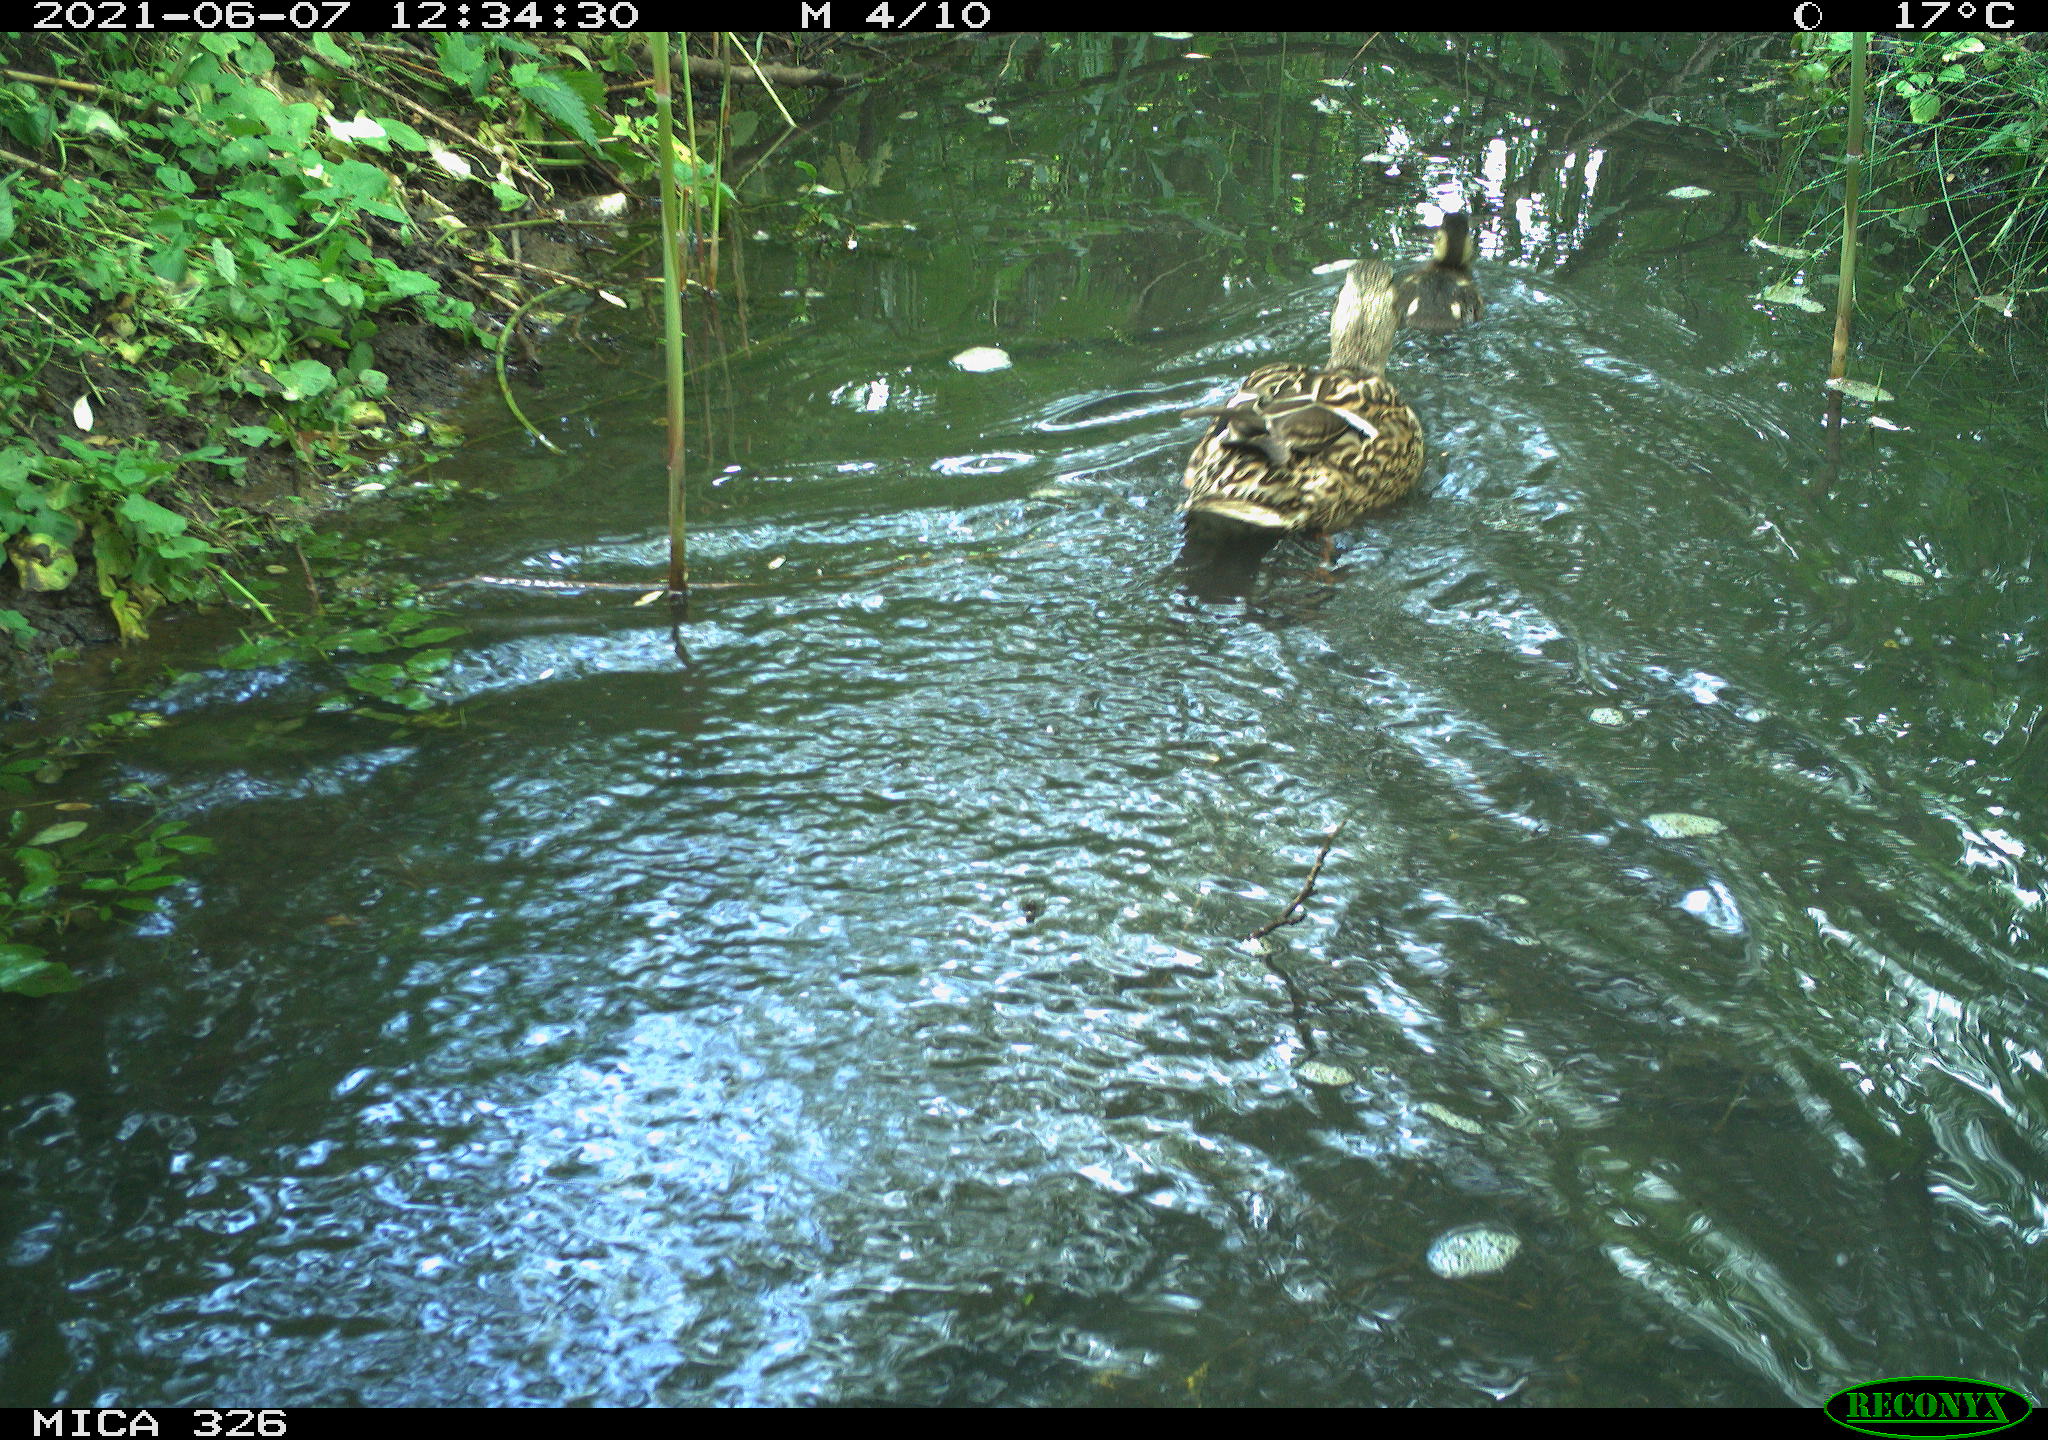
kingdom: Animalia
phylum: Chordata
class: Aves
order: Anseriformes
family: Anatidae
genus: Anas
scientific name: Anas platyrhynchos
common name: Mallard
